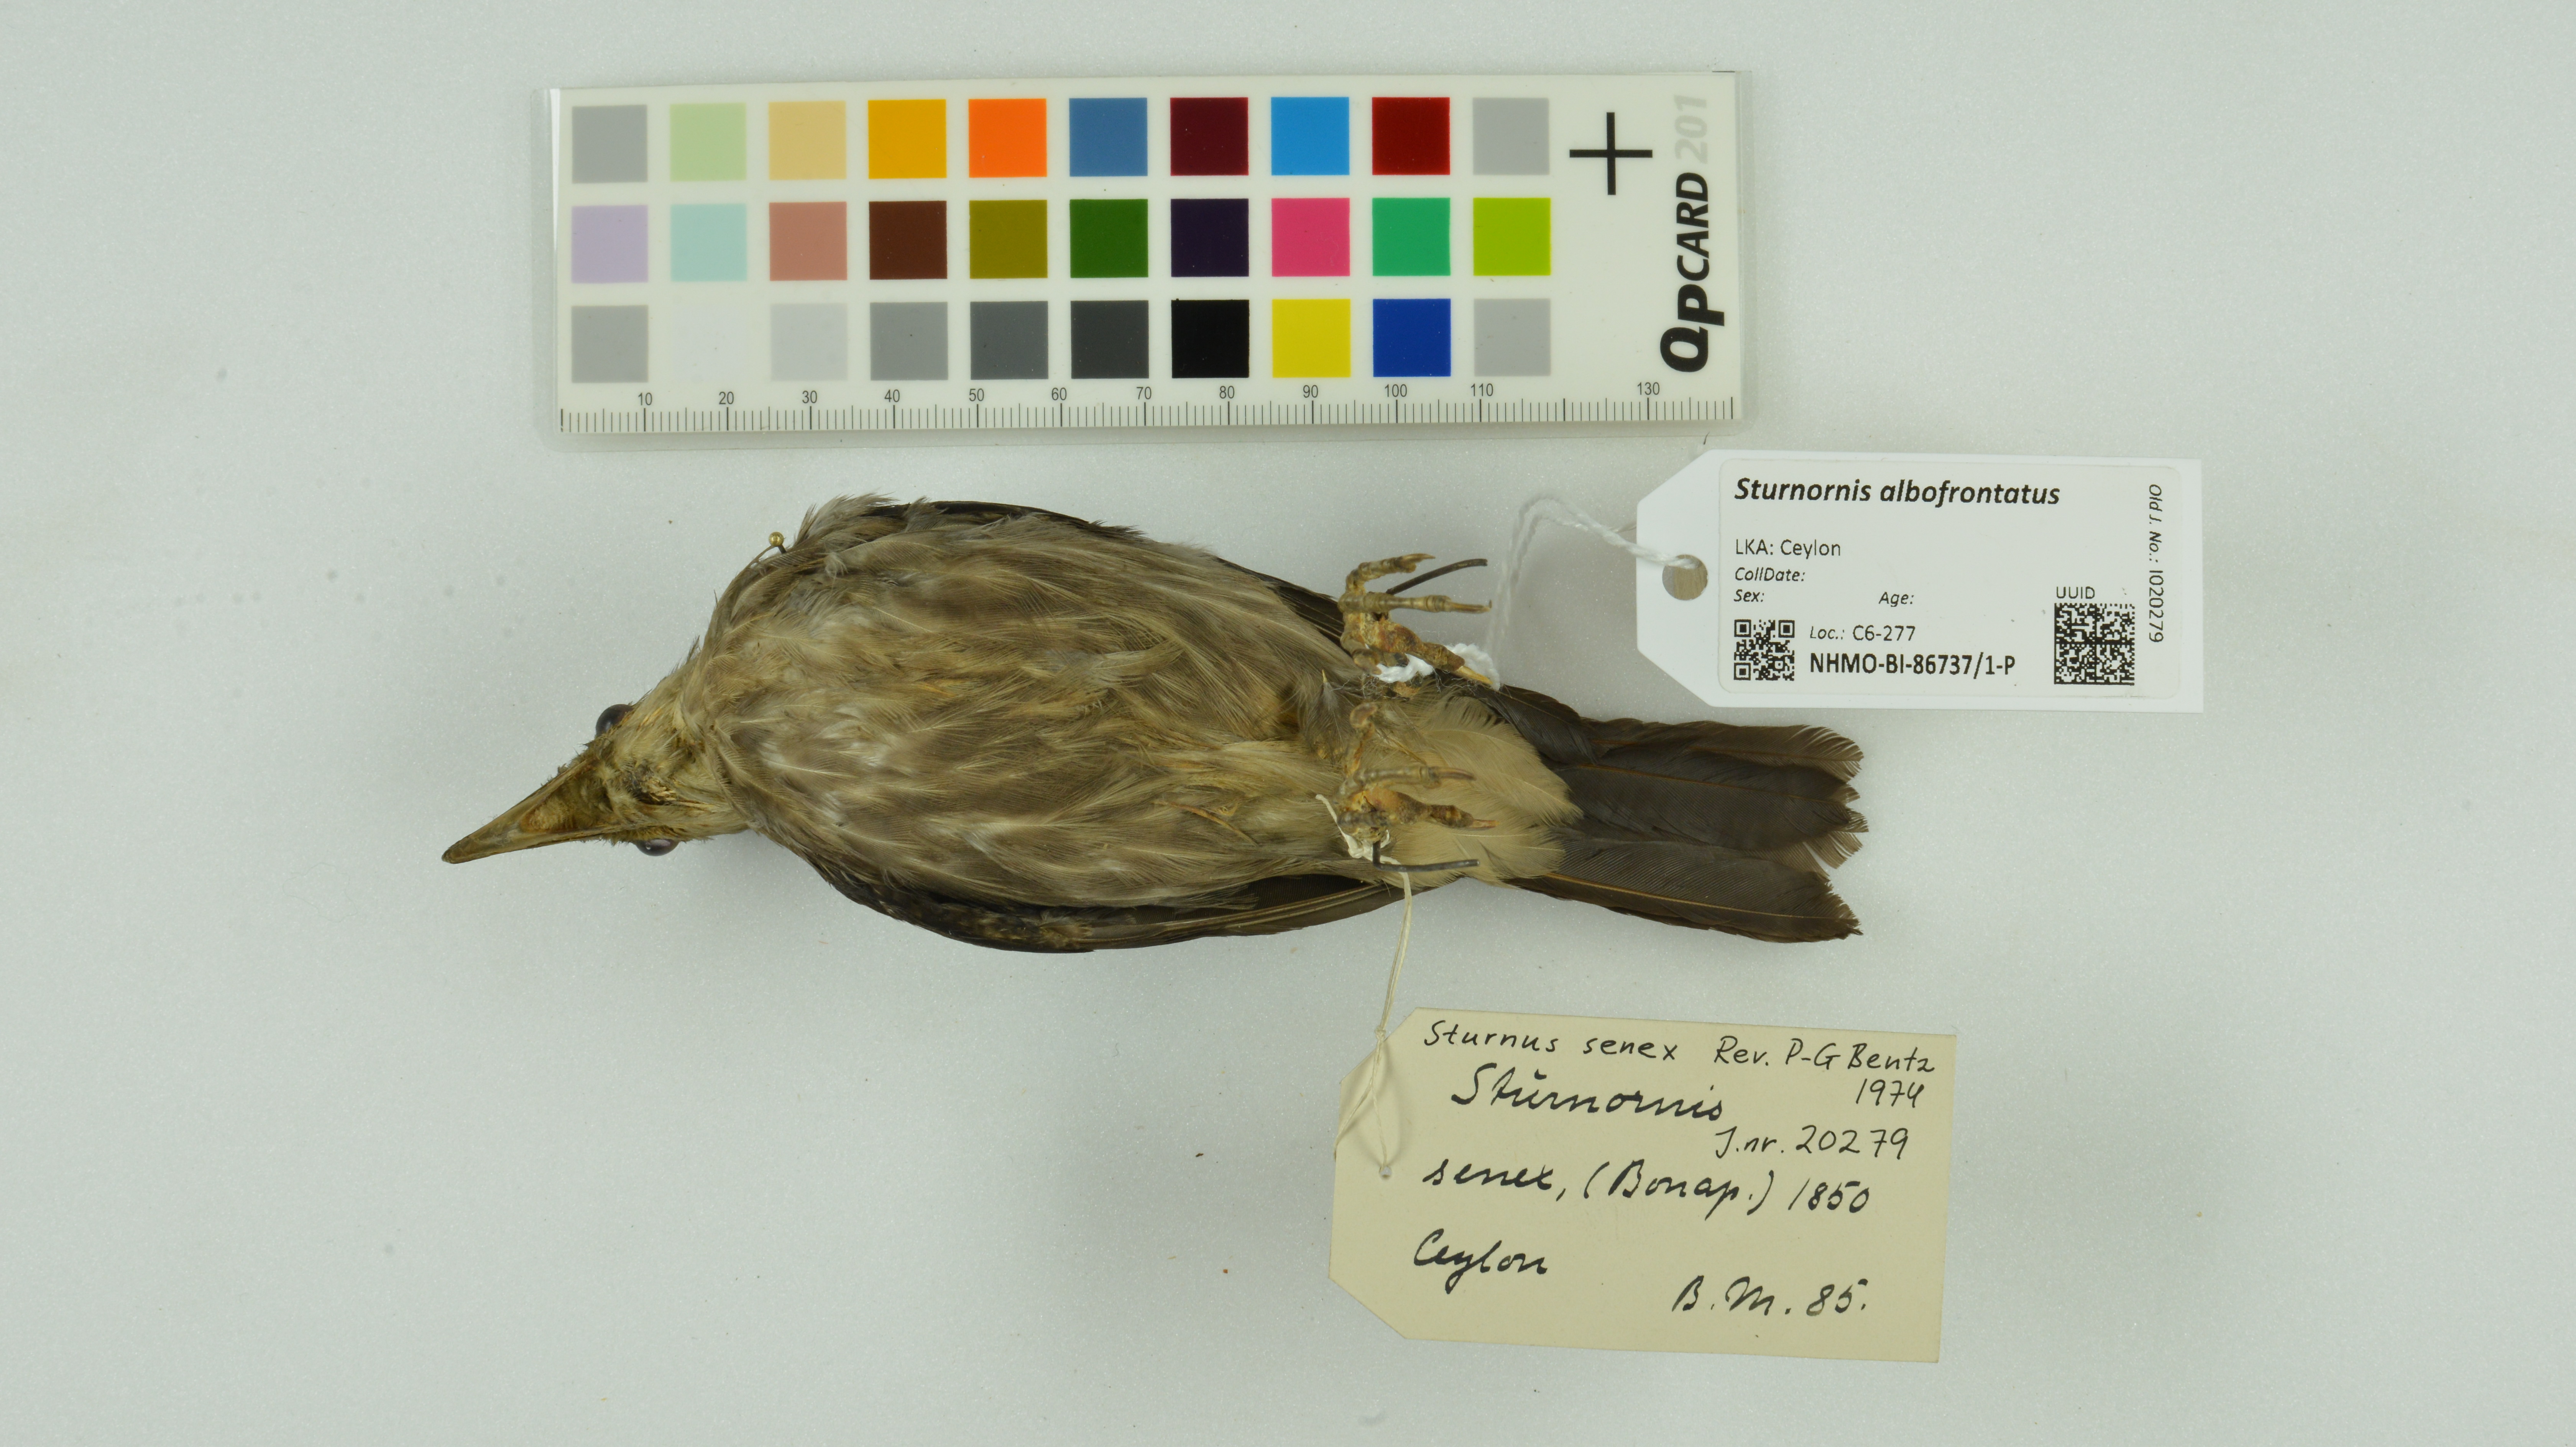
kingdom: Animalia
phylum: Chordata
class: Aves
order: Passeriformes
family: Sturnidae
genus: Sturnornis
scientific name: Sturnornis albofrontatus
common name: White-faced starling
